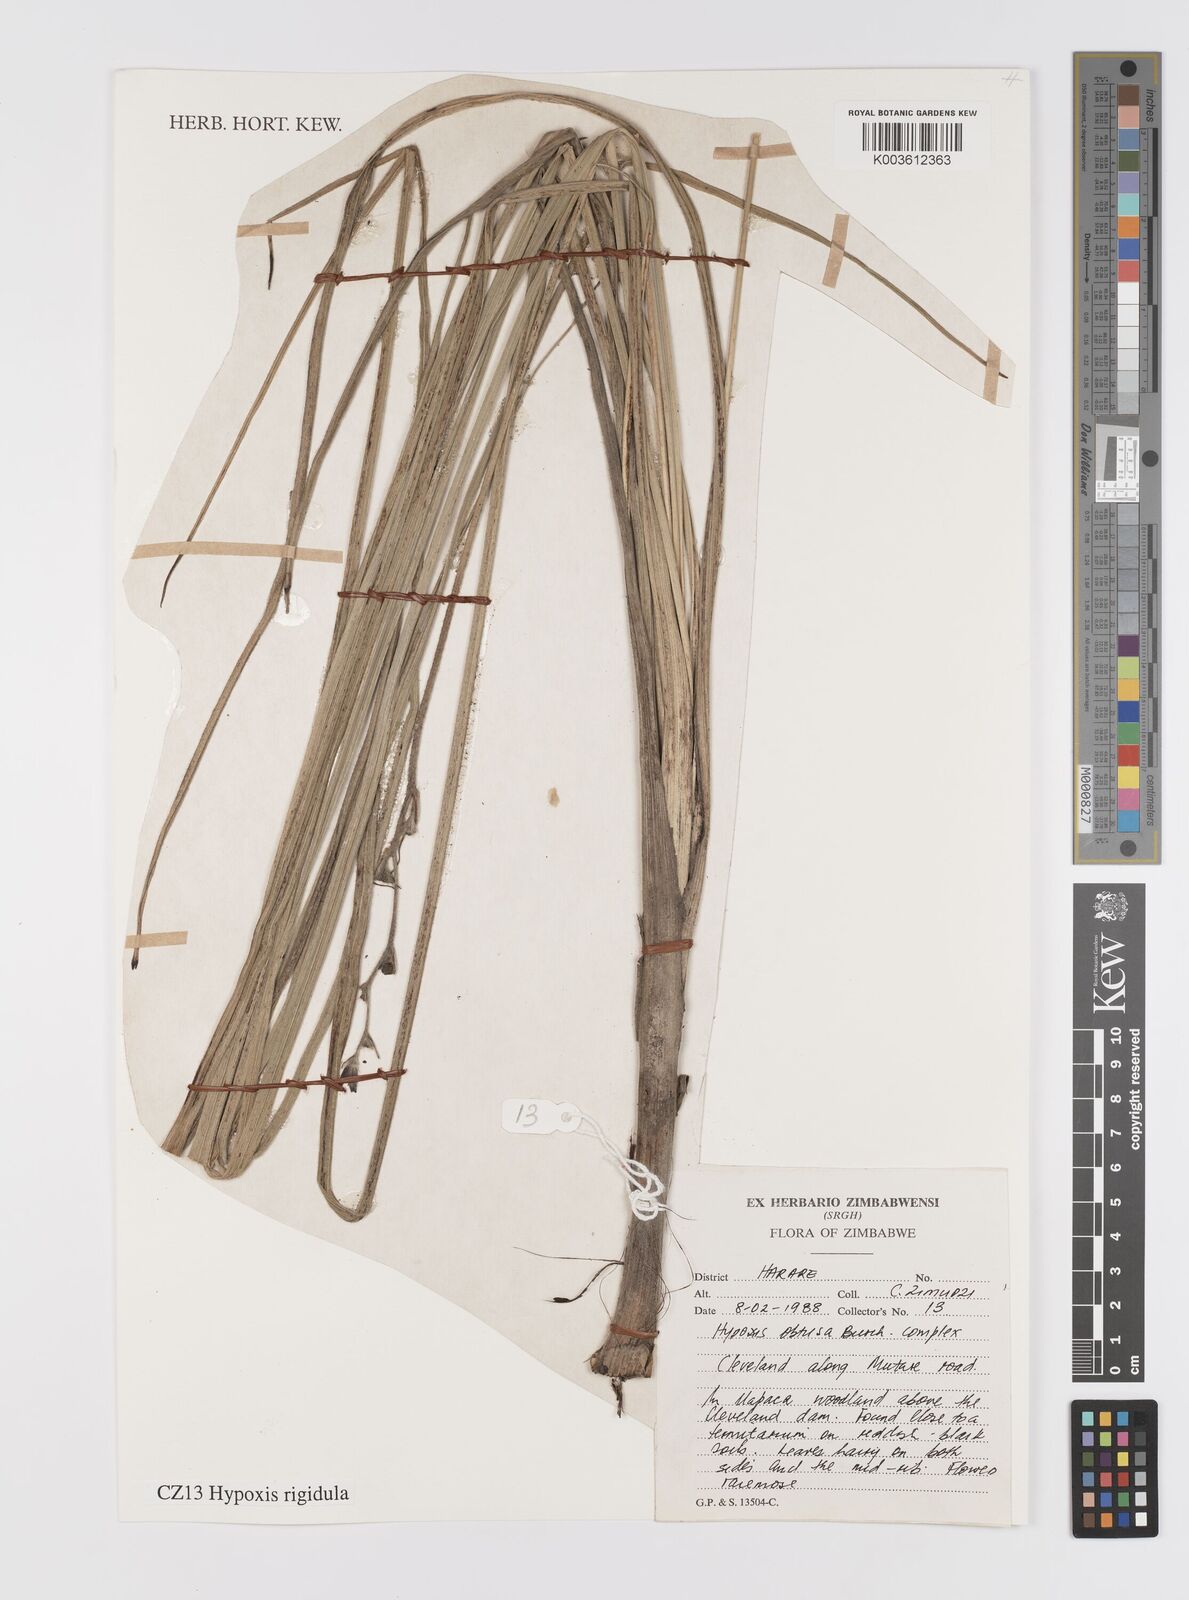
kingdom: Plantae
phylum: Tracheophyta
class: Liliopsida
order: Asparagales
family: Hypoxidaceae
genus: Hypoxis
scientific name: Hypoxis rigidula
